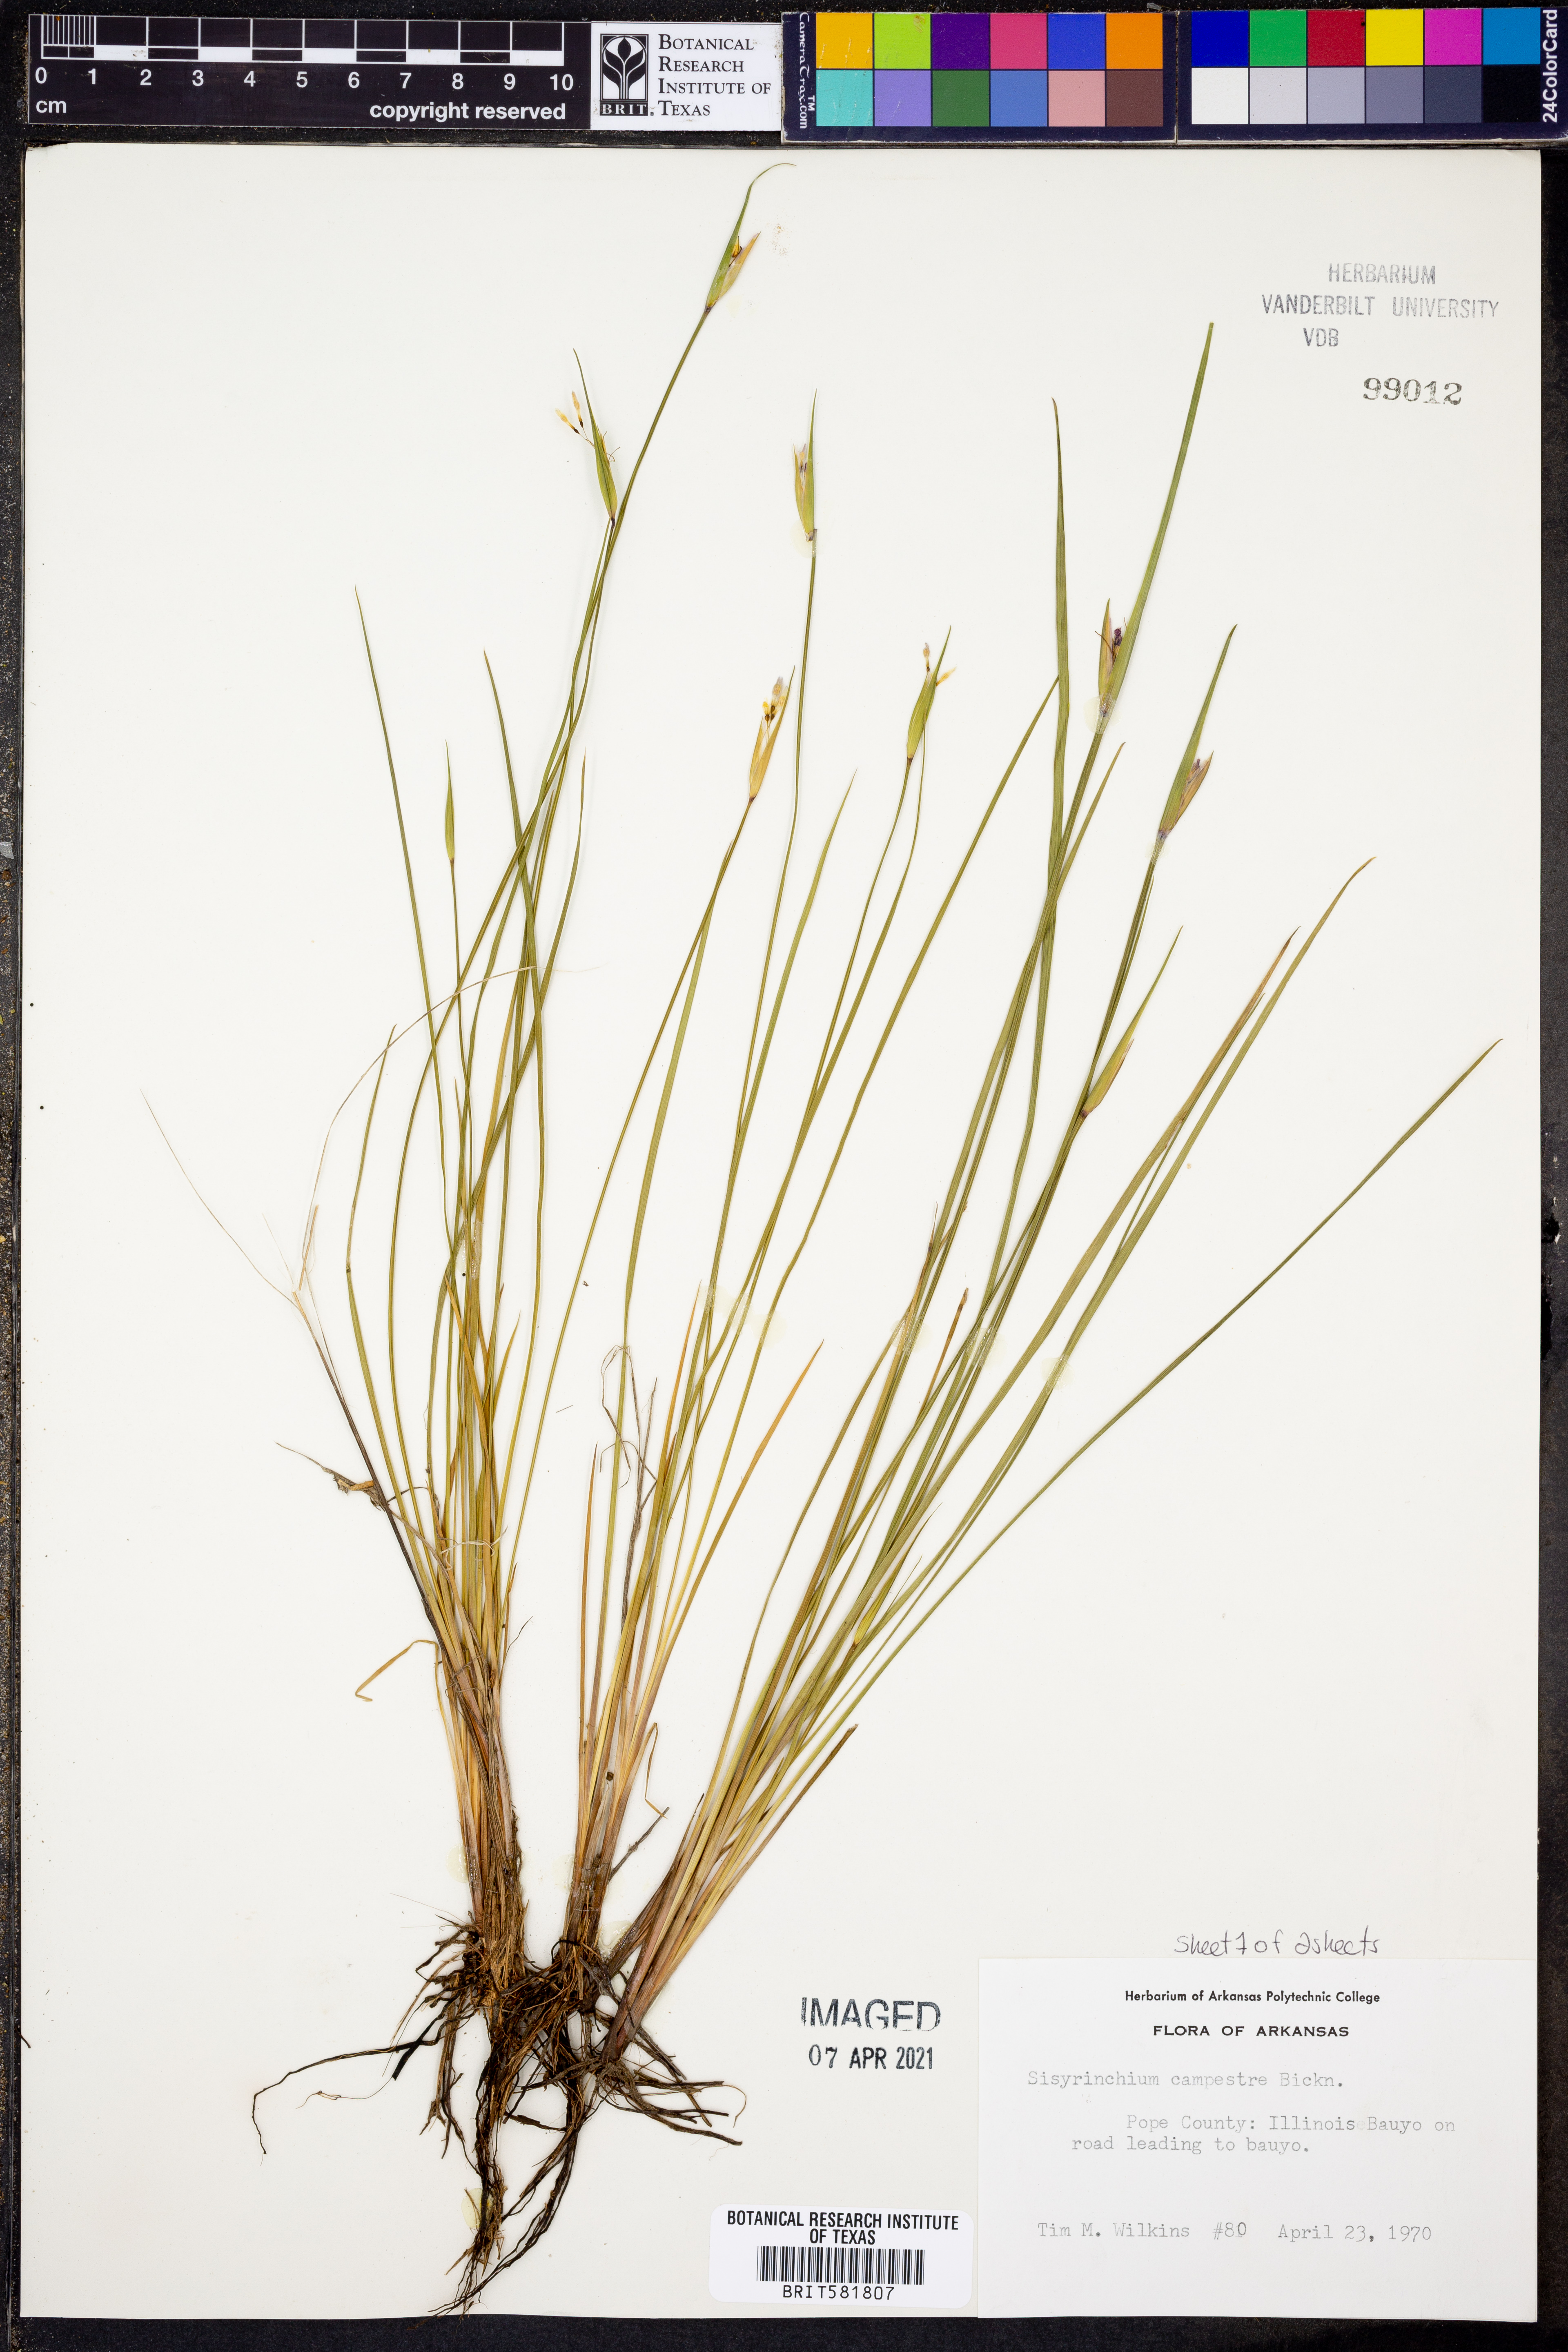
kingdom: Plantae
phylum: Tracheophyta
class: Liliopsida
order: Asparagales
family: Iridaceae
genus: Sisyrinchium
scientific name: Sisyrinchium campestre
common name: Prairie blue-eyed-grass
